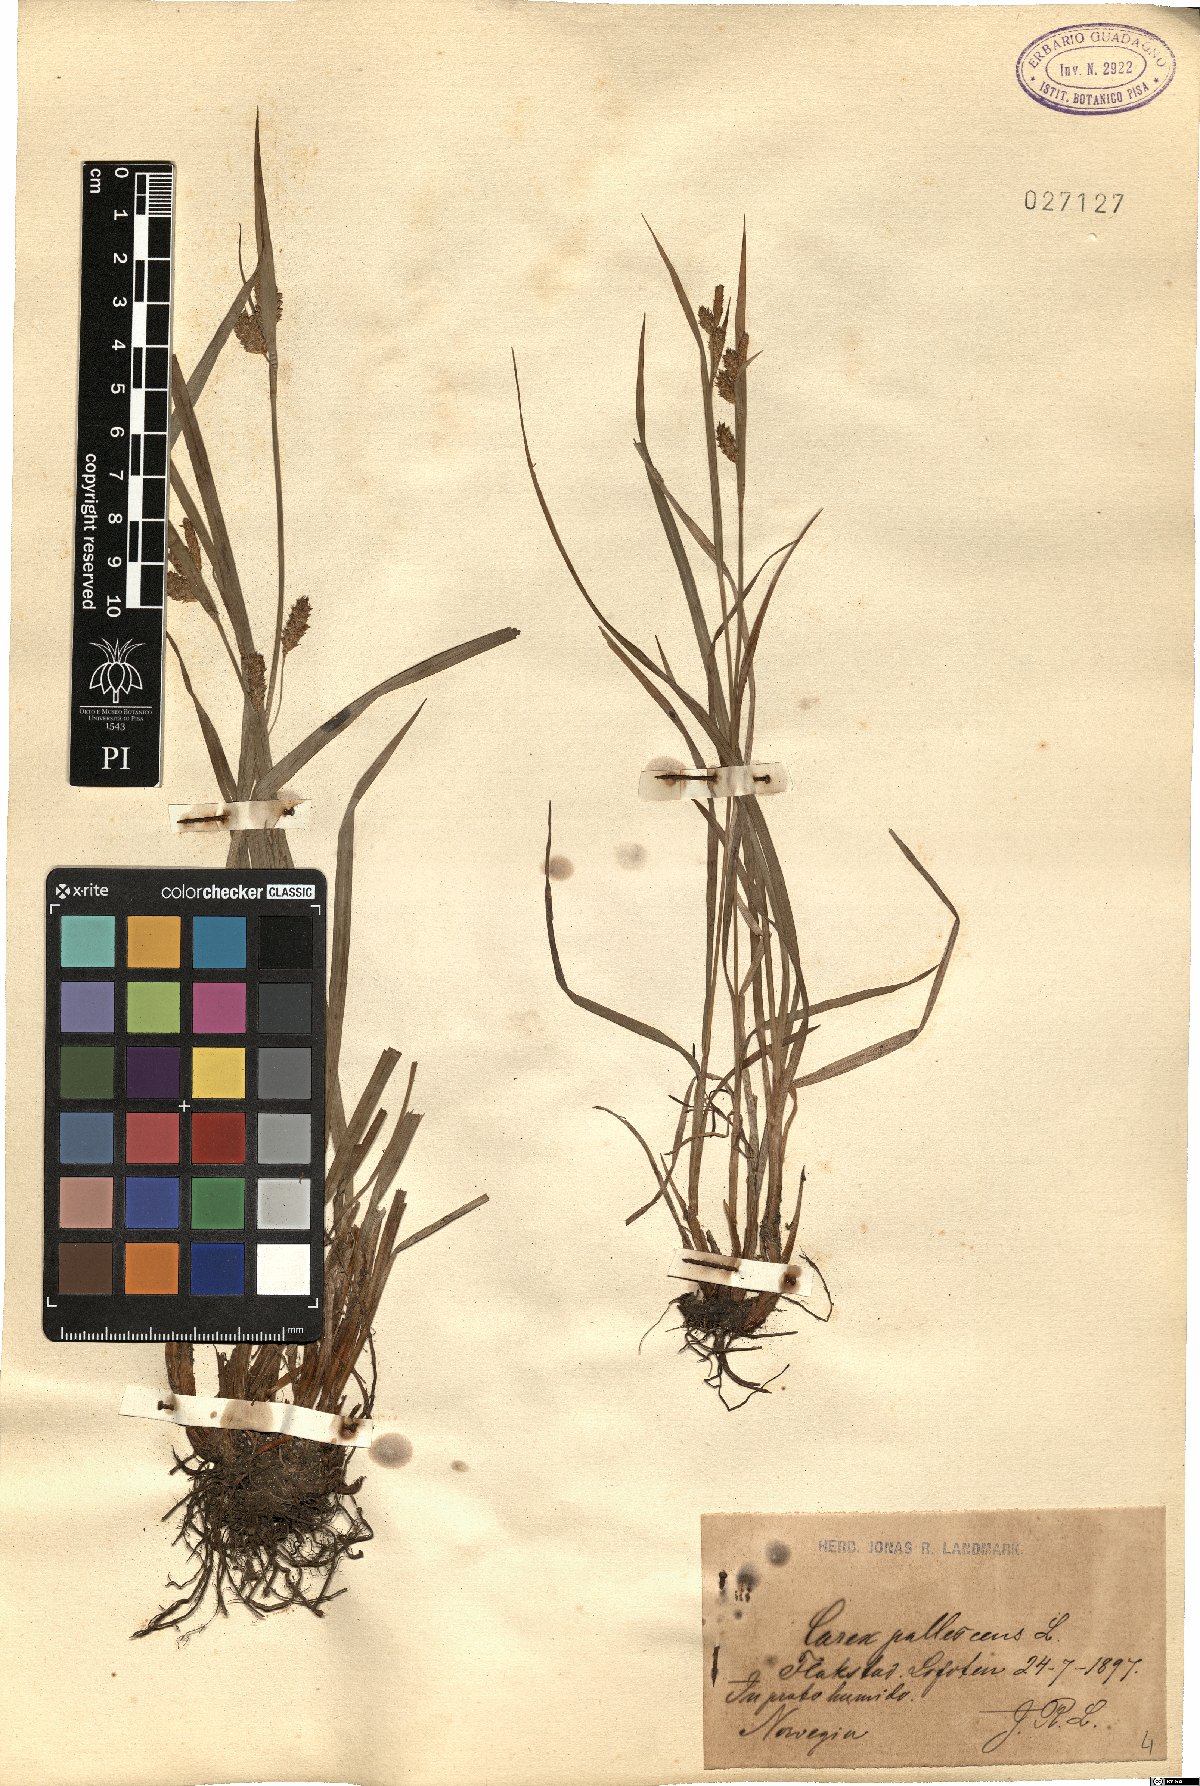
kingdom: Plantae
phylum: Tracheophyta
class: Liliopsida
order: Poales
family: Cyperaceae
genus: Carex
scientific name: Carex pallescens
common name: Pale sedge
